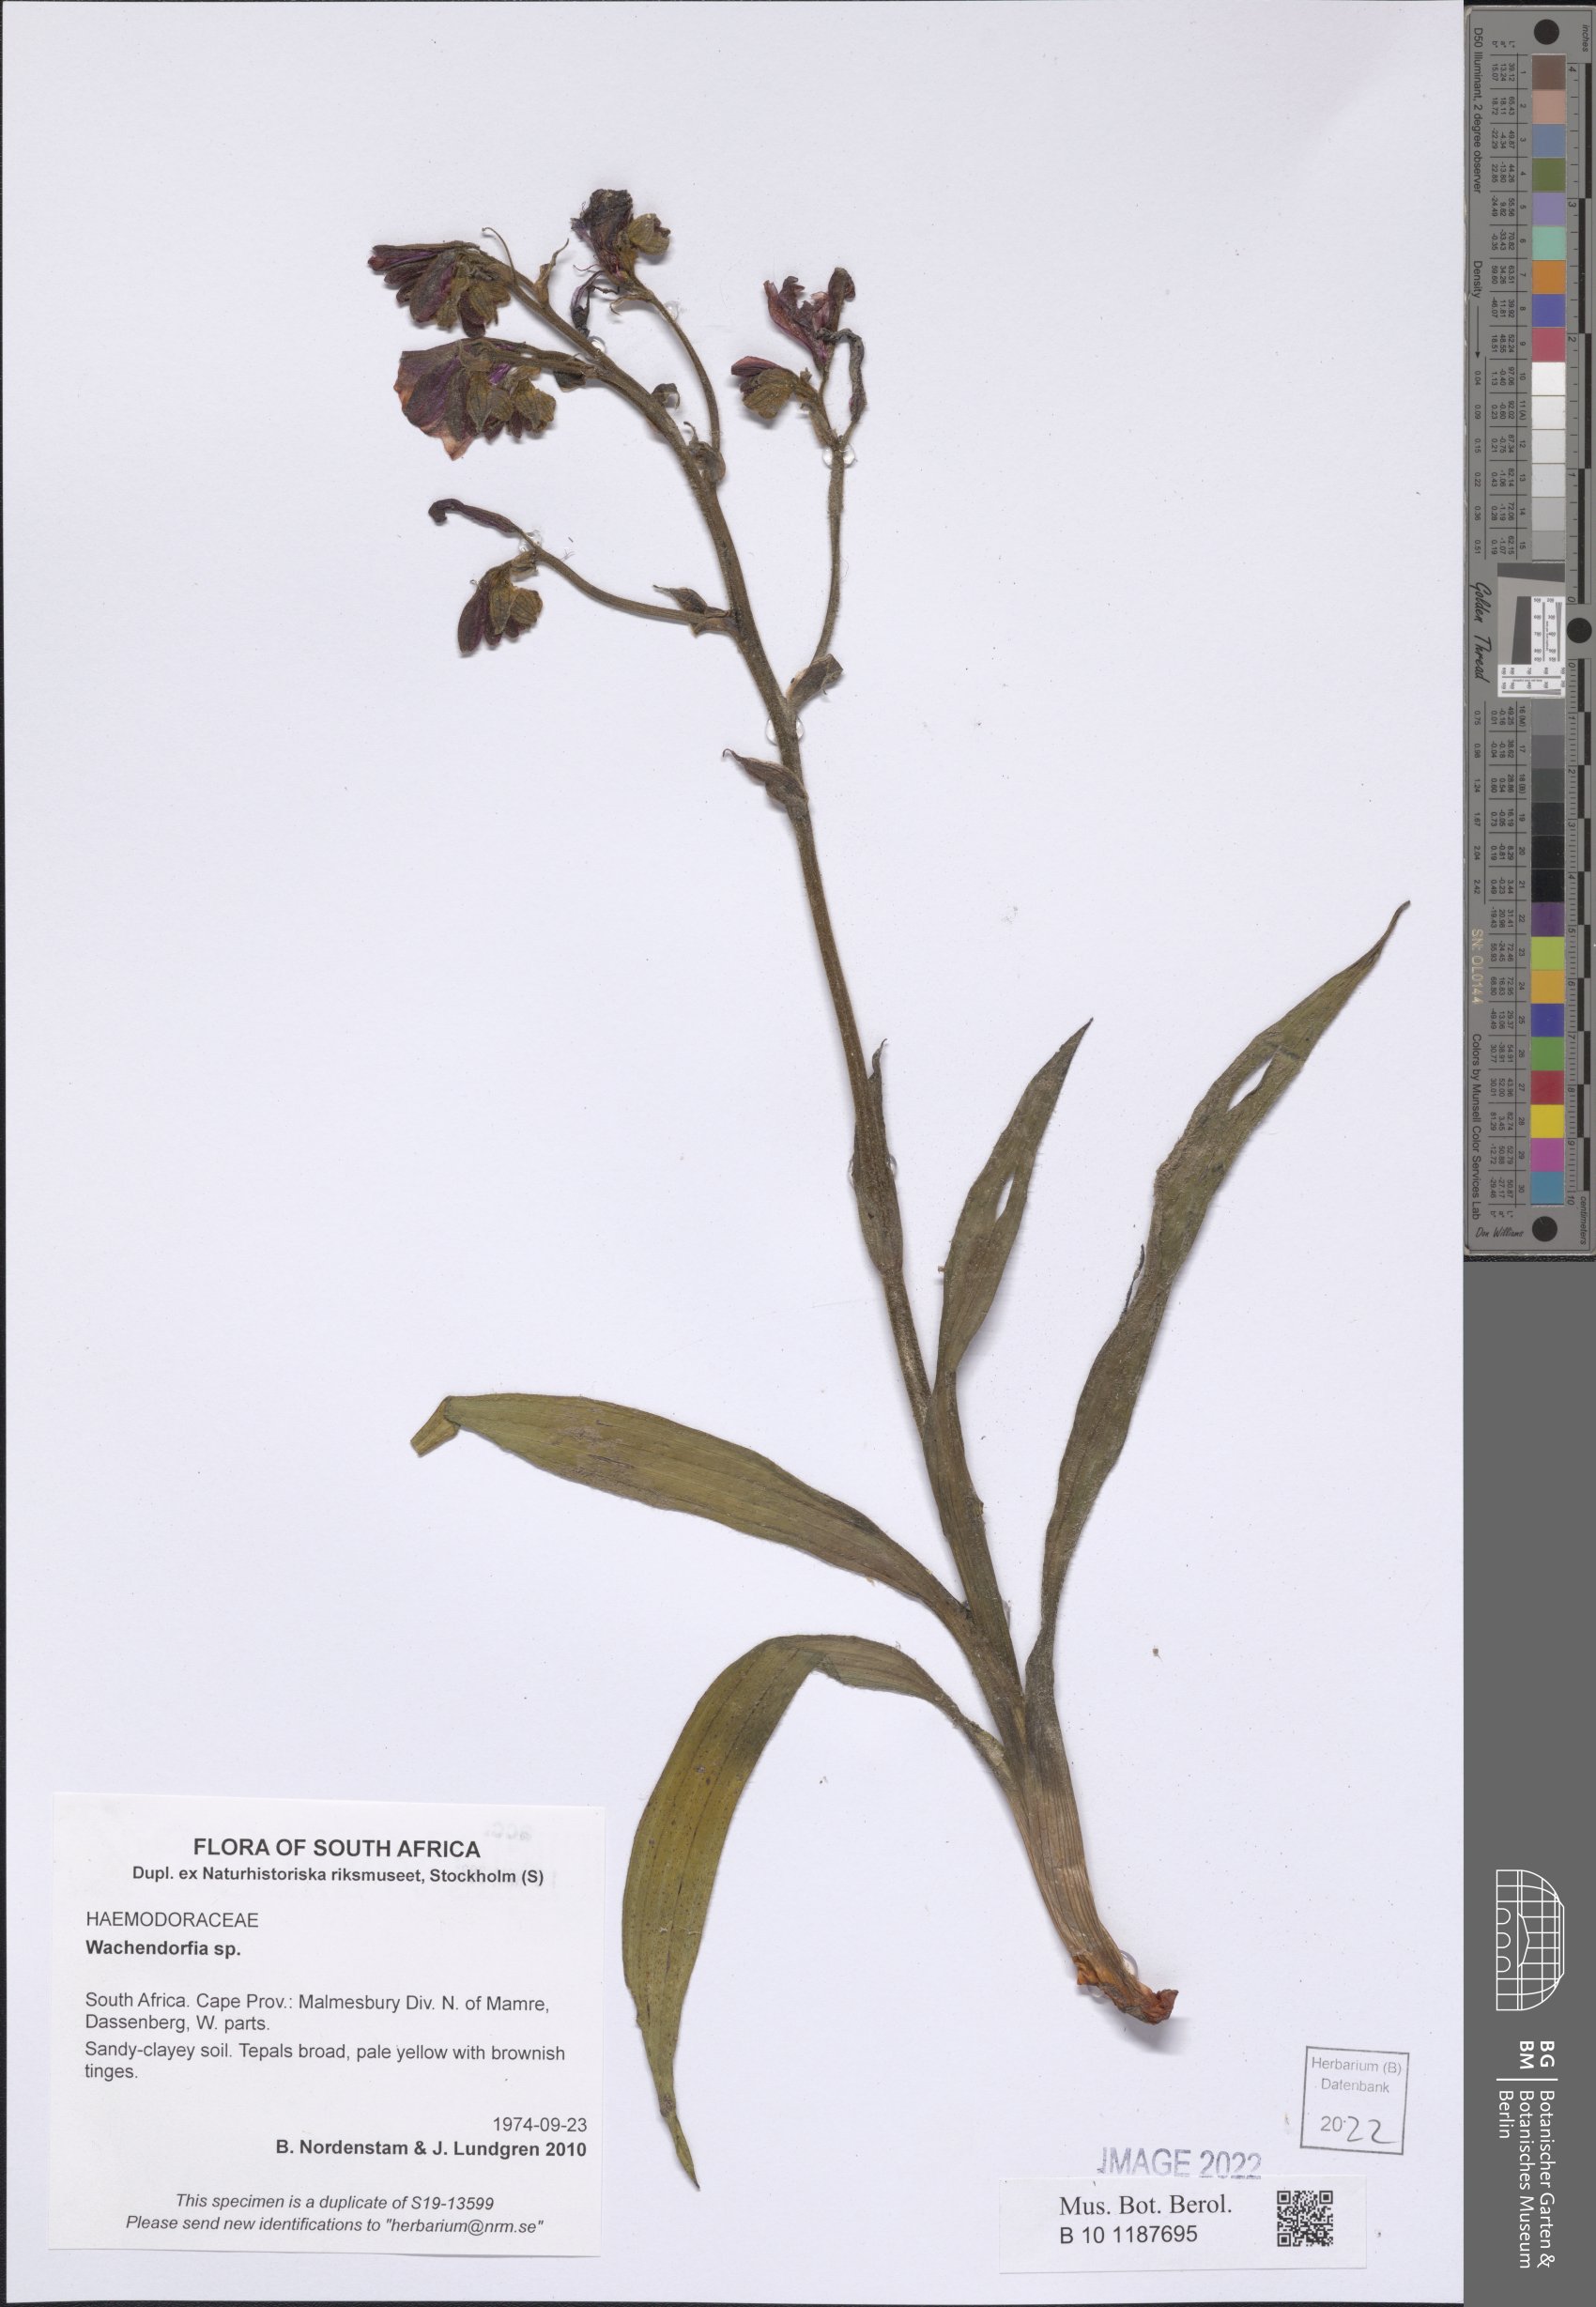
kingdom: Plantae
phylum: Tracheophyta
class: Liliopsida
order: Commelinales
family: Haemodoraceae
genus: Wachendorfia
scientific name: Wachendorfia
